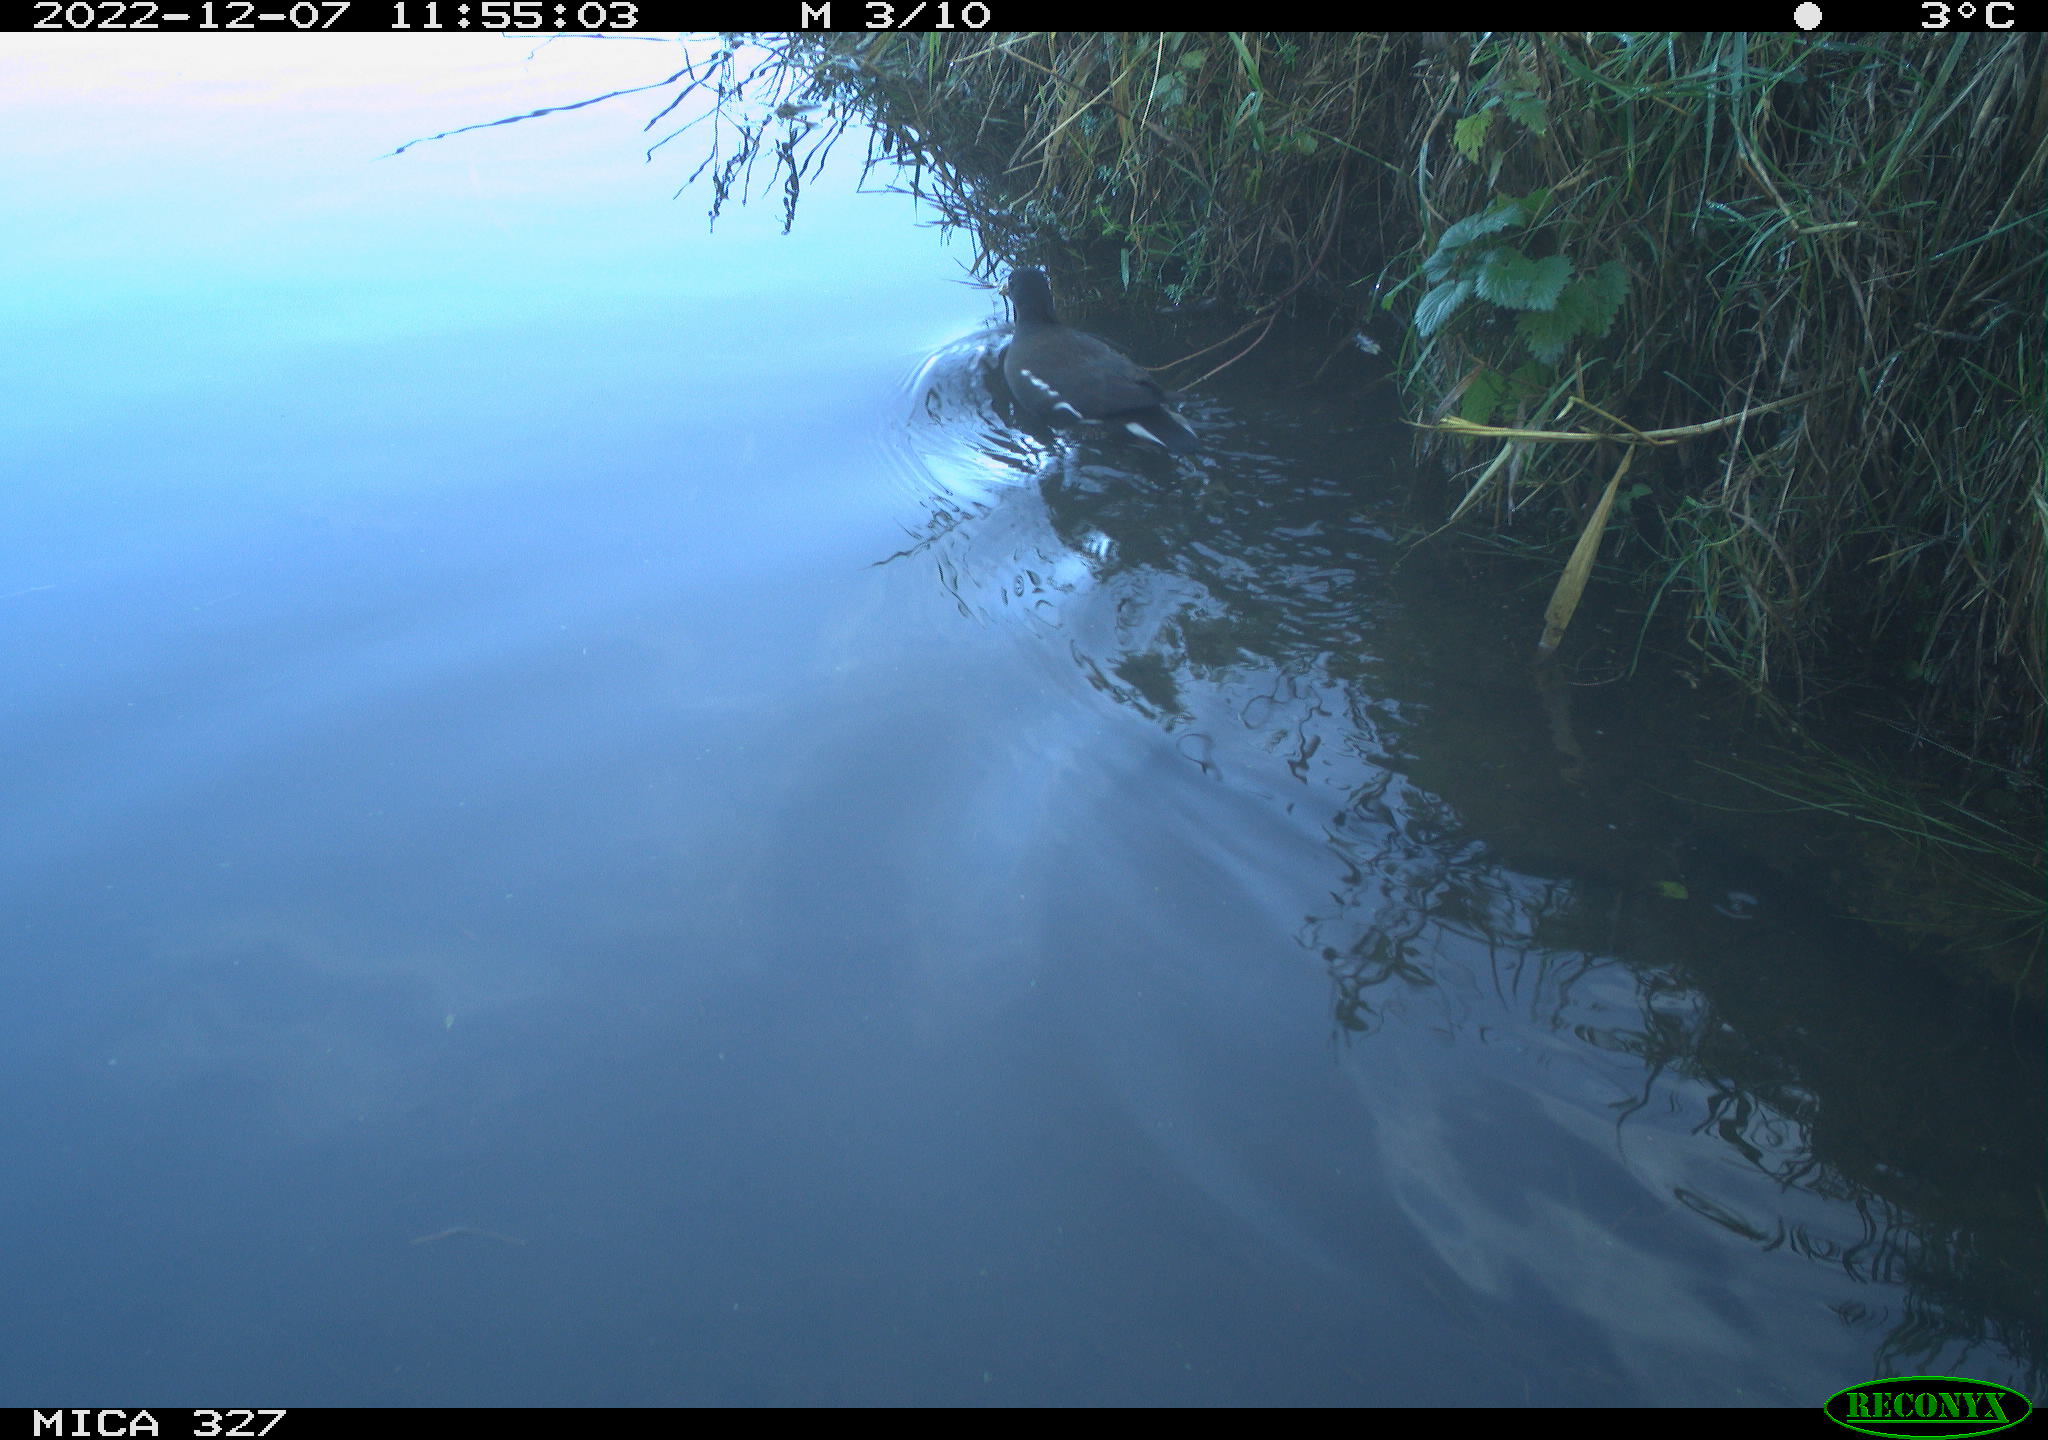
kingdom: Animalia
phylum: Chordata
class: Aves
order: Gruiformes
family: Rallidae
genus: Gallinula
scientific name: Gallinula chloropus
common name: Common moorhen
